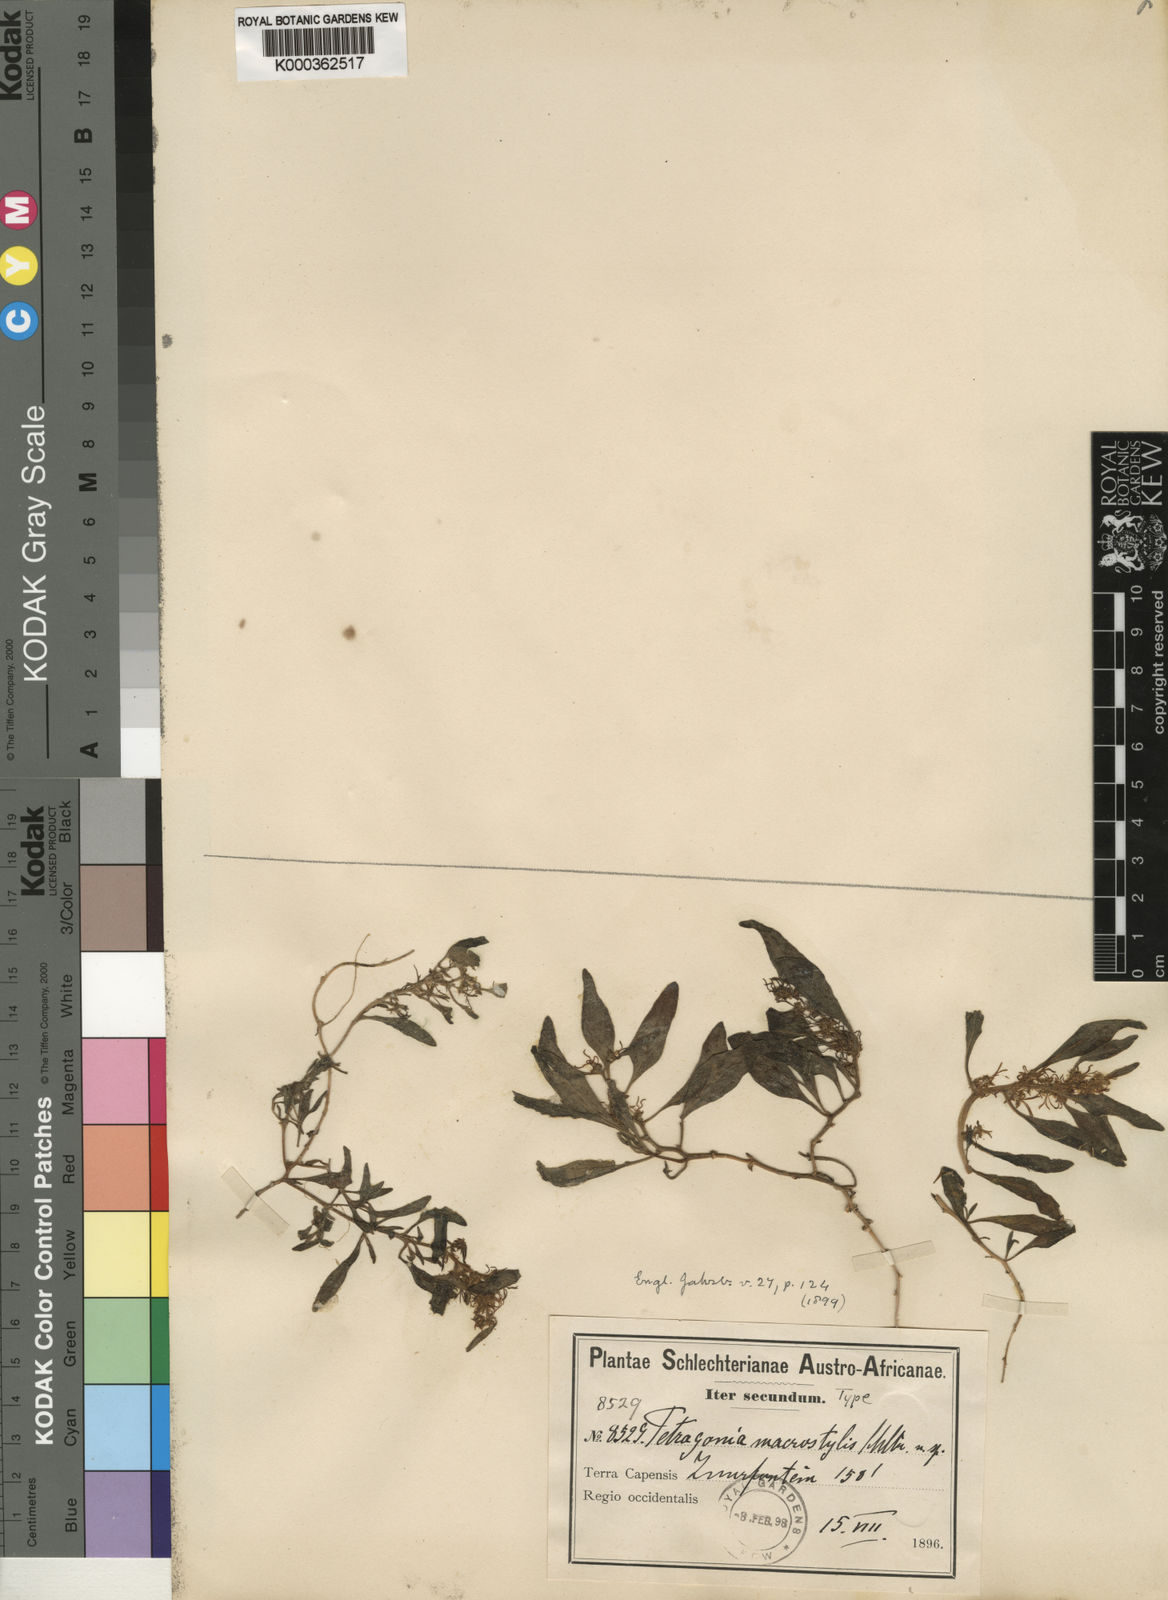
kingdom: Plantae
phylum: Tracheophyta
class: Magnoliopsida
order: Caryophyllales
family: Aizoaceae
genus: Tetragonia
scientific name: Tetragonia chenopodioides
